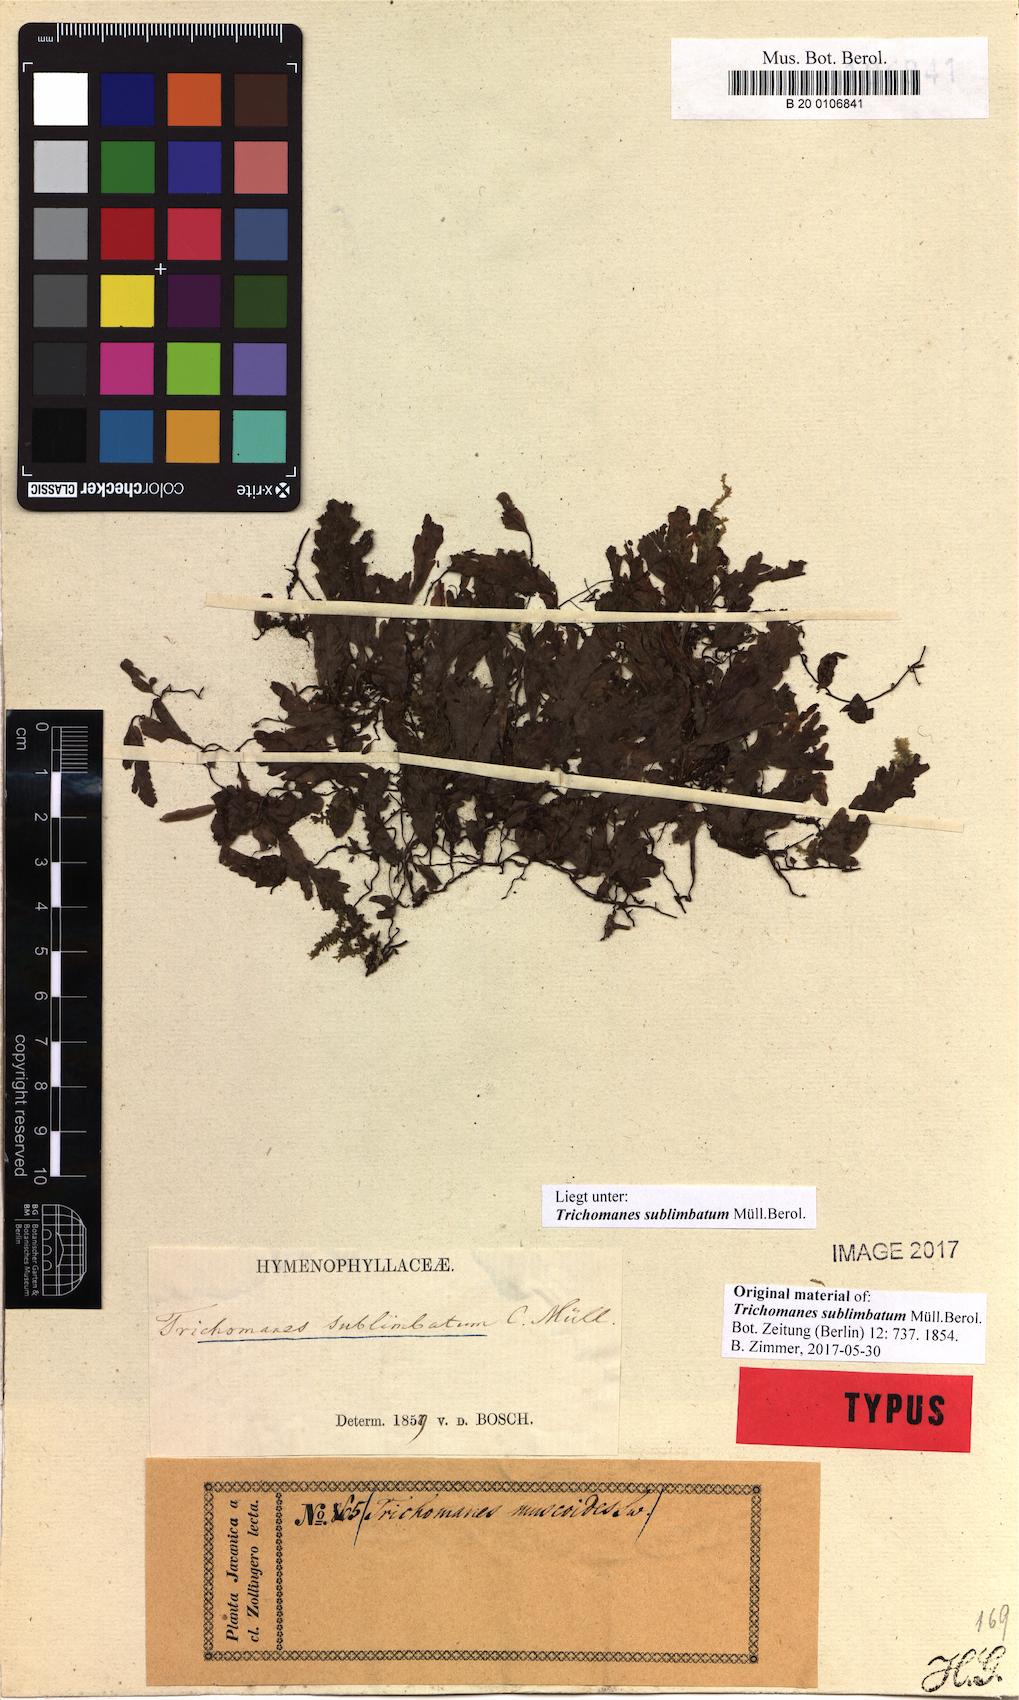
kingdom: Plantae
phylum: Tracheophyta
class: Polypodiopsida
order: Hymenophyllales
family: Hymenophyllaceae
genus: Trichomanes
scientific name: Trichomanes sublimbatum
